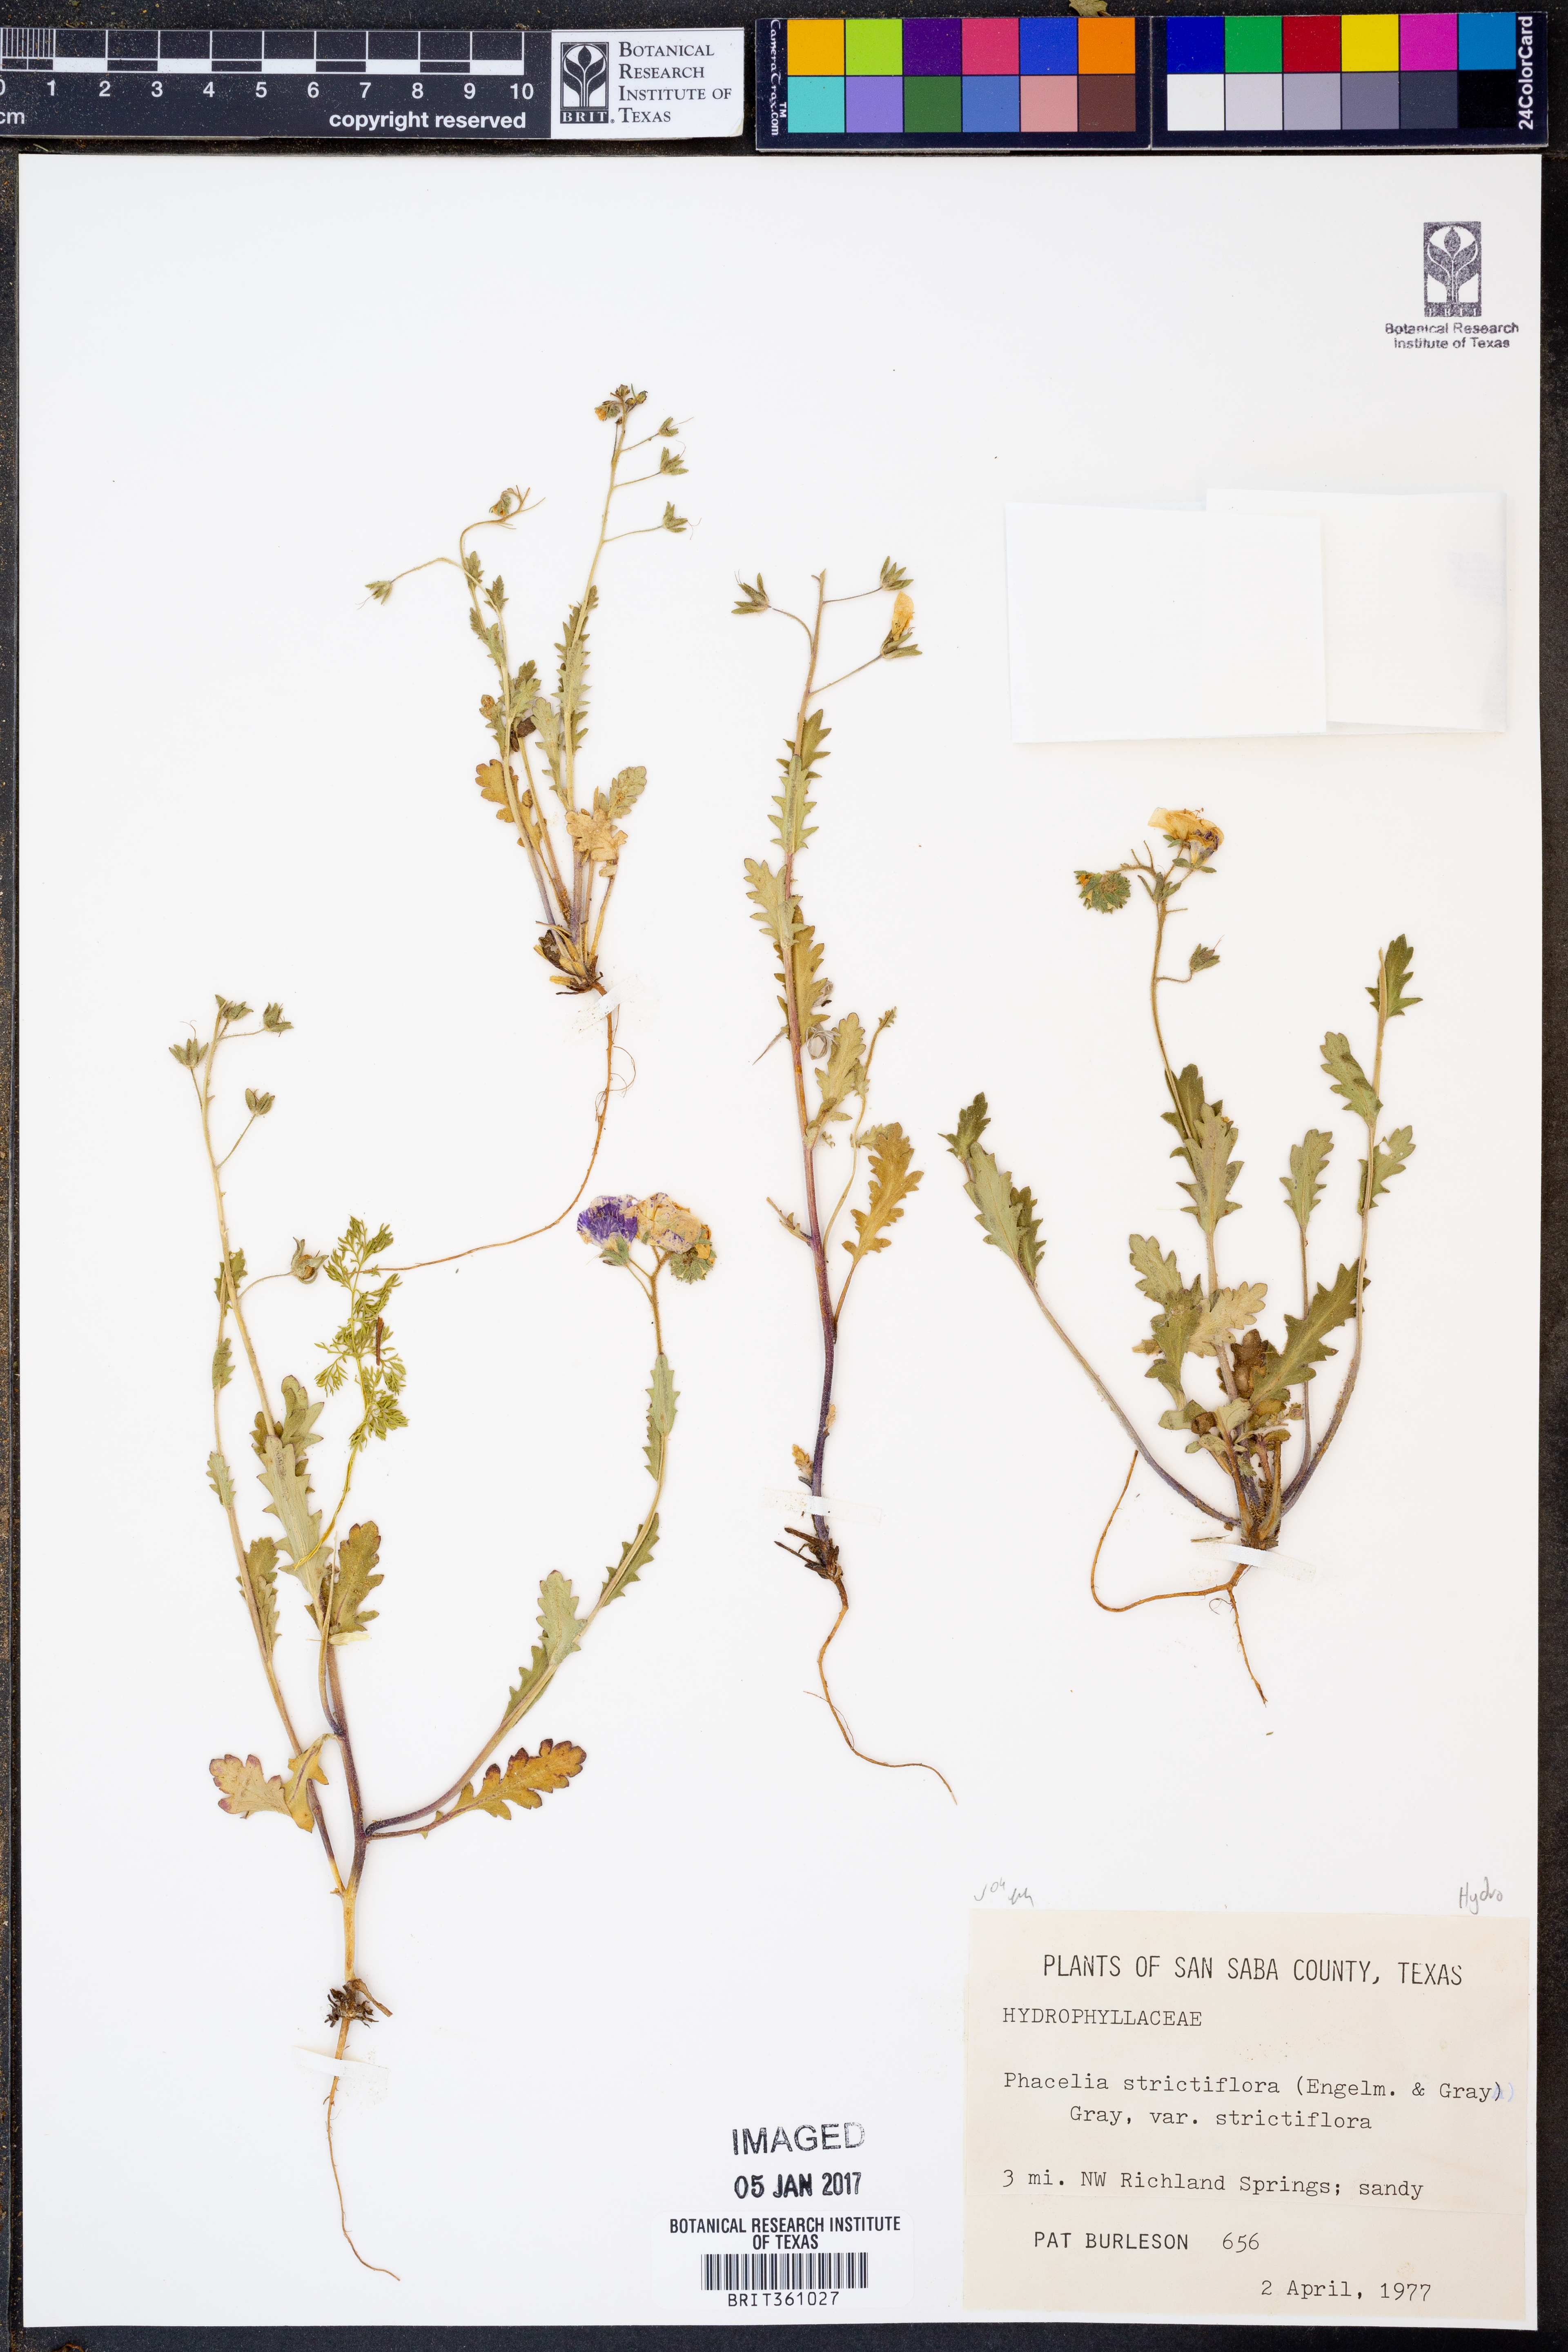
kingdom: Plantae
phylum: Tracheophyta
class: Magnoliopsida
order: Boraginales
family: Hydrophyllaceae
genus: Phacelia
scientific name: Phacelia strictiflora
